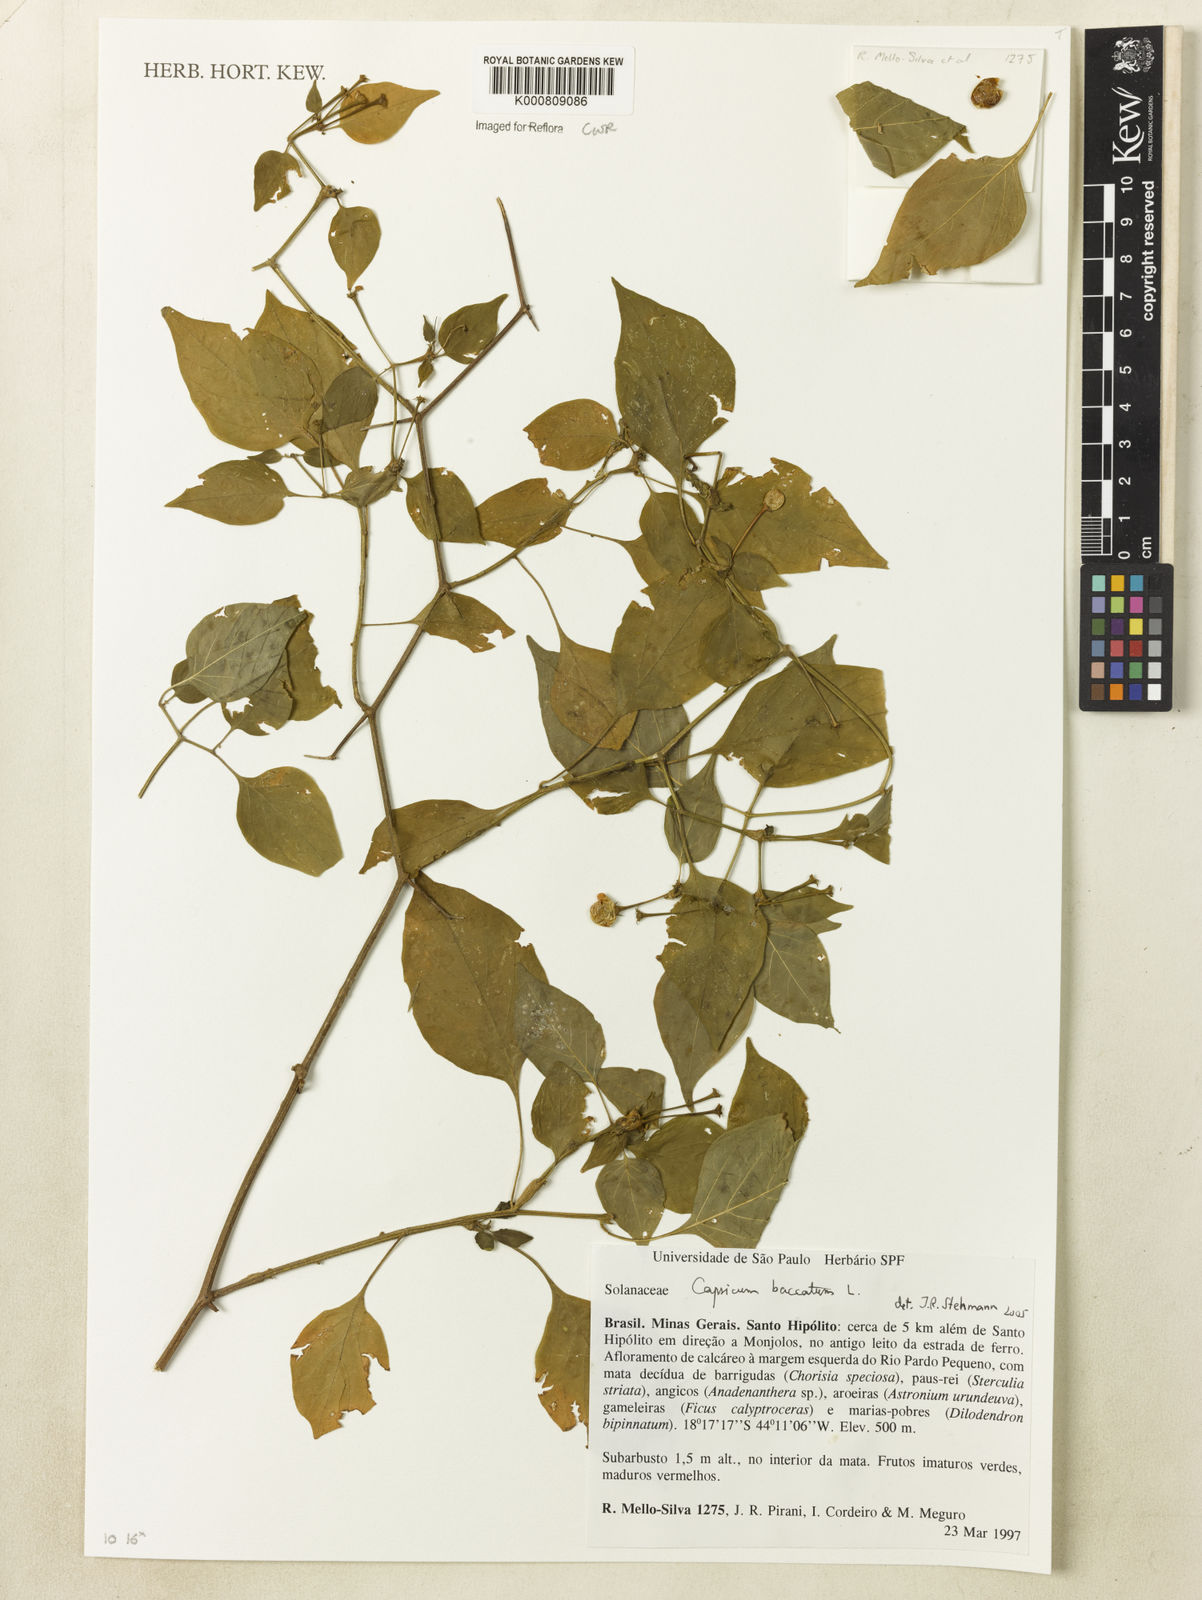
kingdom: Plantae
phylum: Tracheophyta
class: Magnoliopsida
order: Solanales
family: Solanaceae
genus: Capsicum
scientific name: Capsicum baccatum
